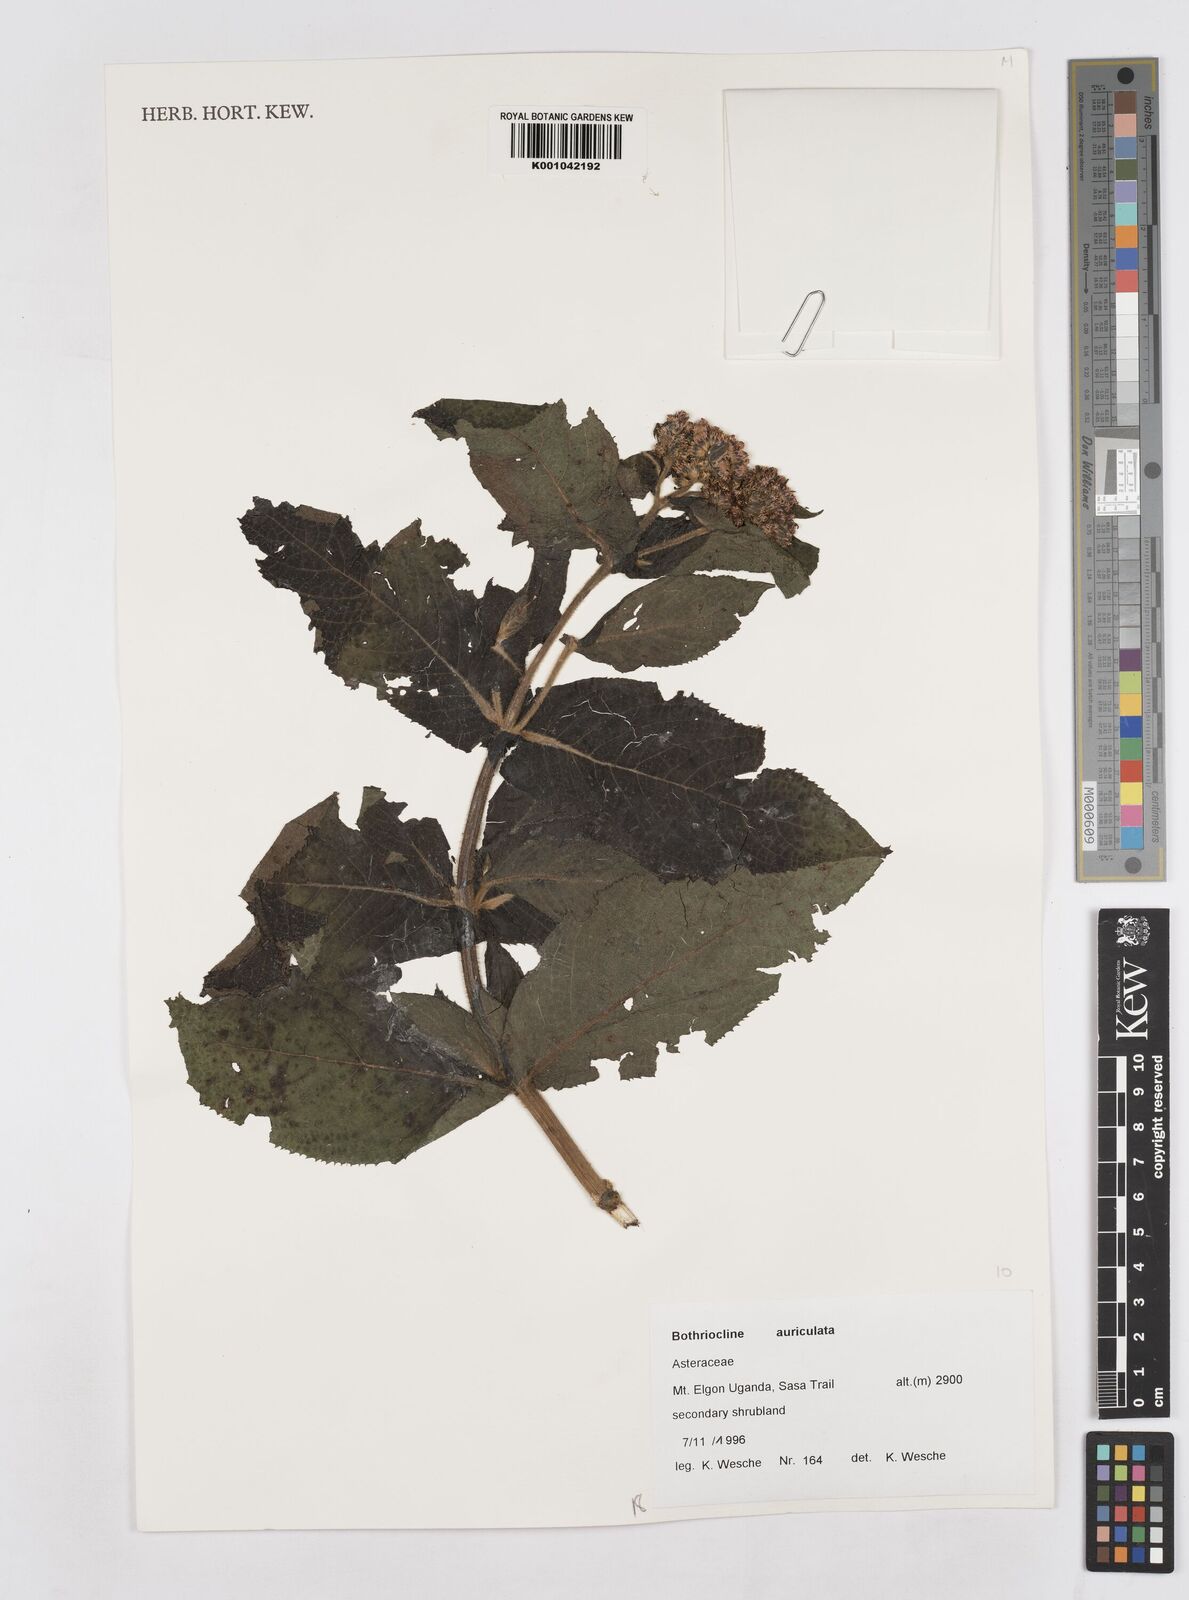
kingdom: Plantae
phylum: Tracheophyta
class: Magnoliopsida
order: Asterales
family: Asteraceae
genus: Bothriocline
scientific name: Bothriocline auriculata
